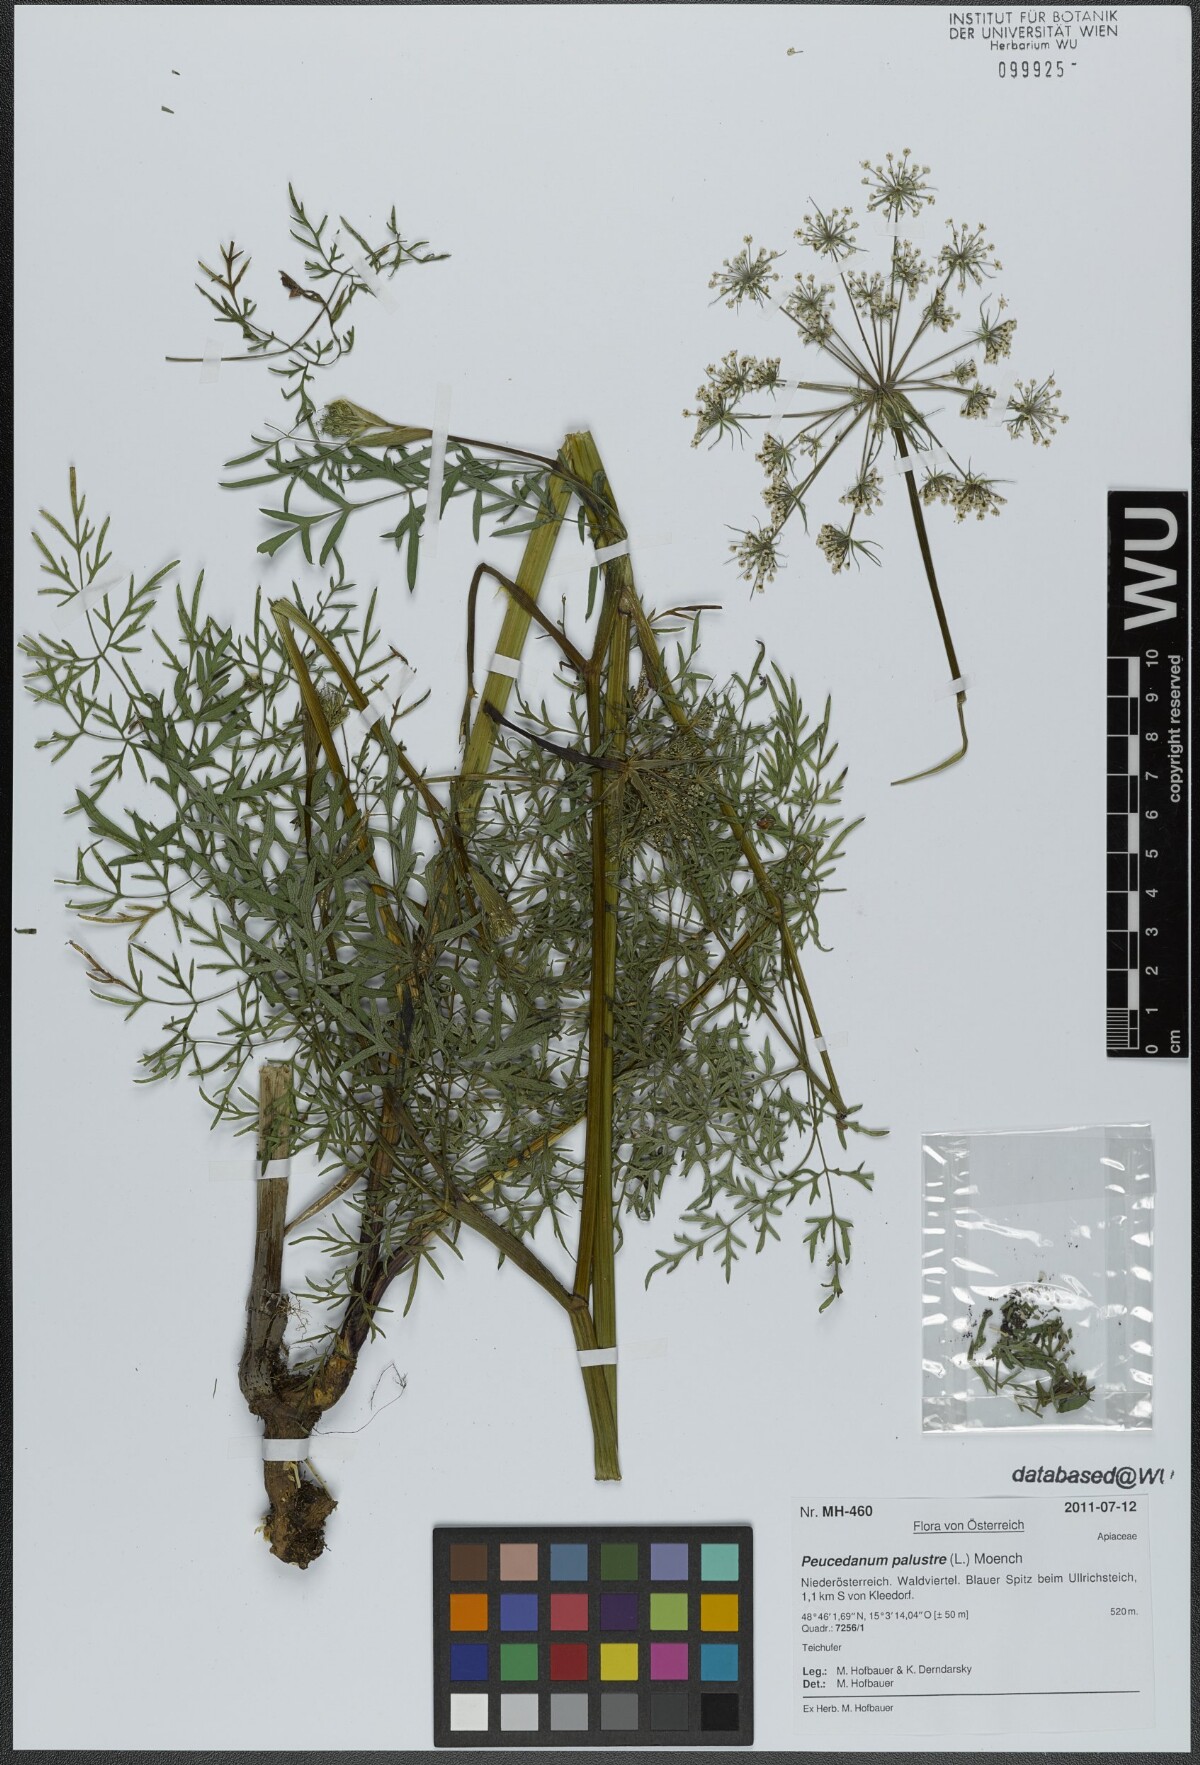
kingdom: Plantae
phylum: Tracheophyta
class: Magnoliopsida
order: Apiales
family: Apiaceae
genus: Thysselinum
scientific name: Thysselinum palustre
